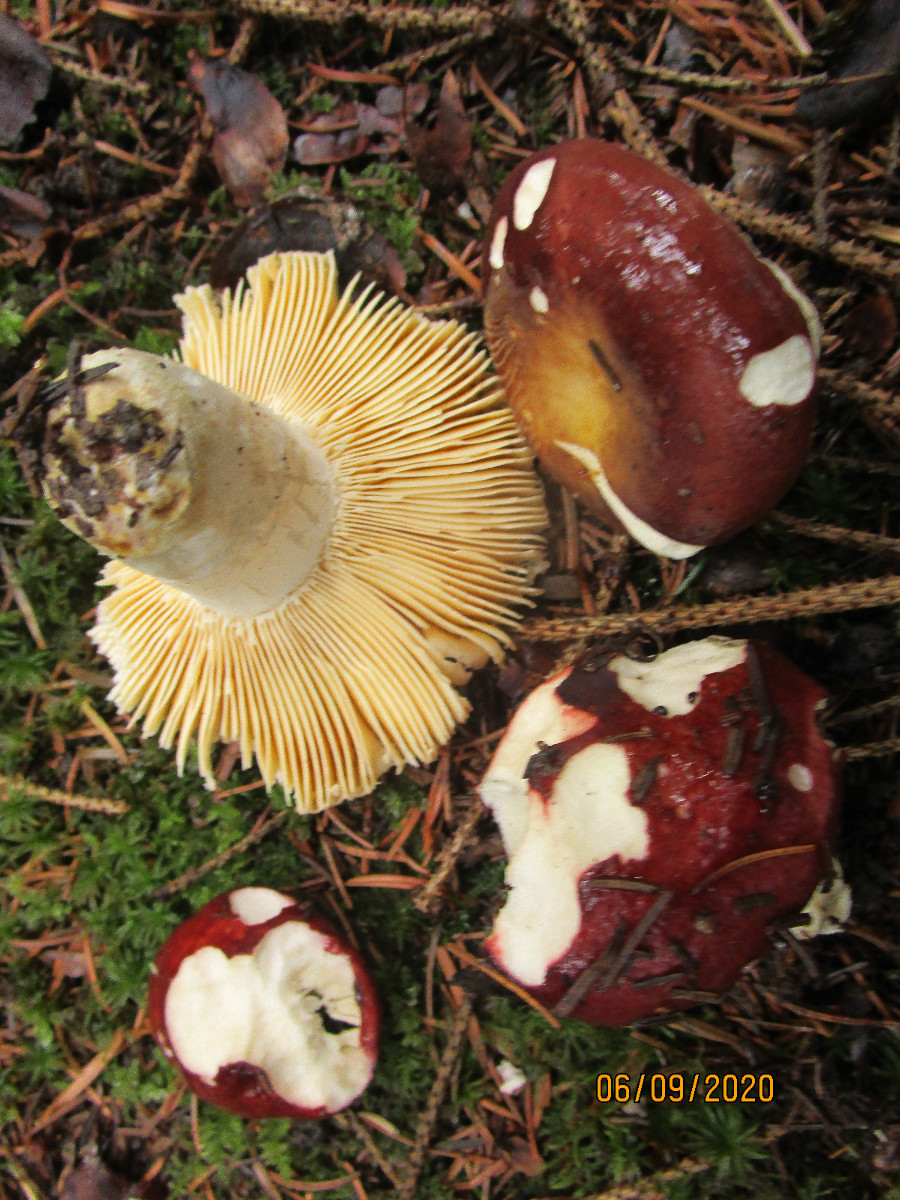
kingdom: Fungi
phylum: Basidiomycota
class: Agaricomycetes
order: Russulales
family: Russulaceae
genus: Russula
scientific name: Russula integra
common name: mandel-skørhat
